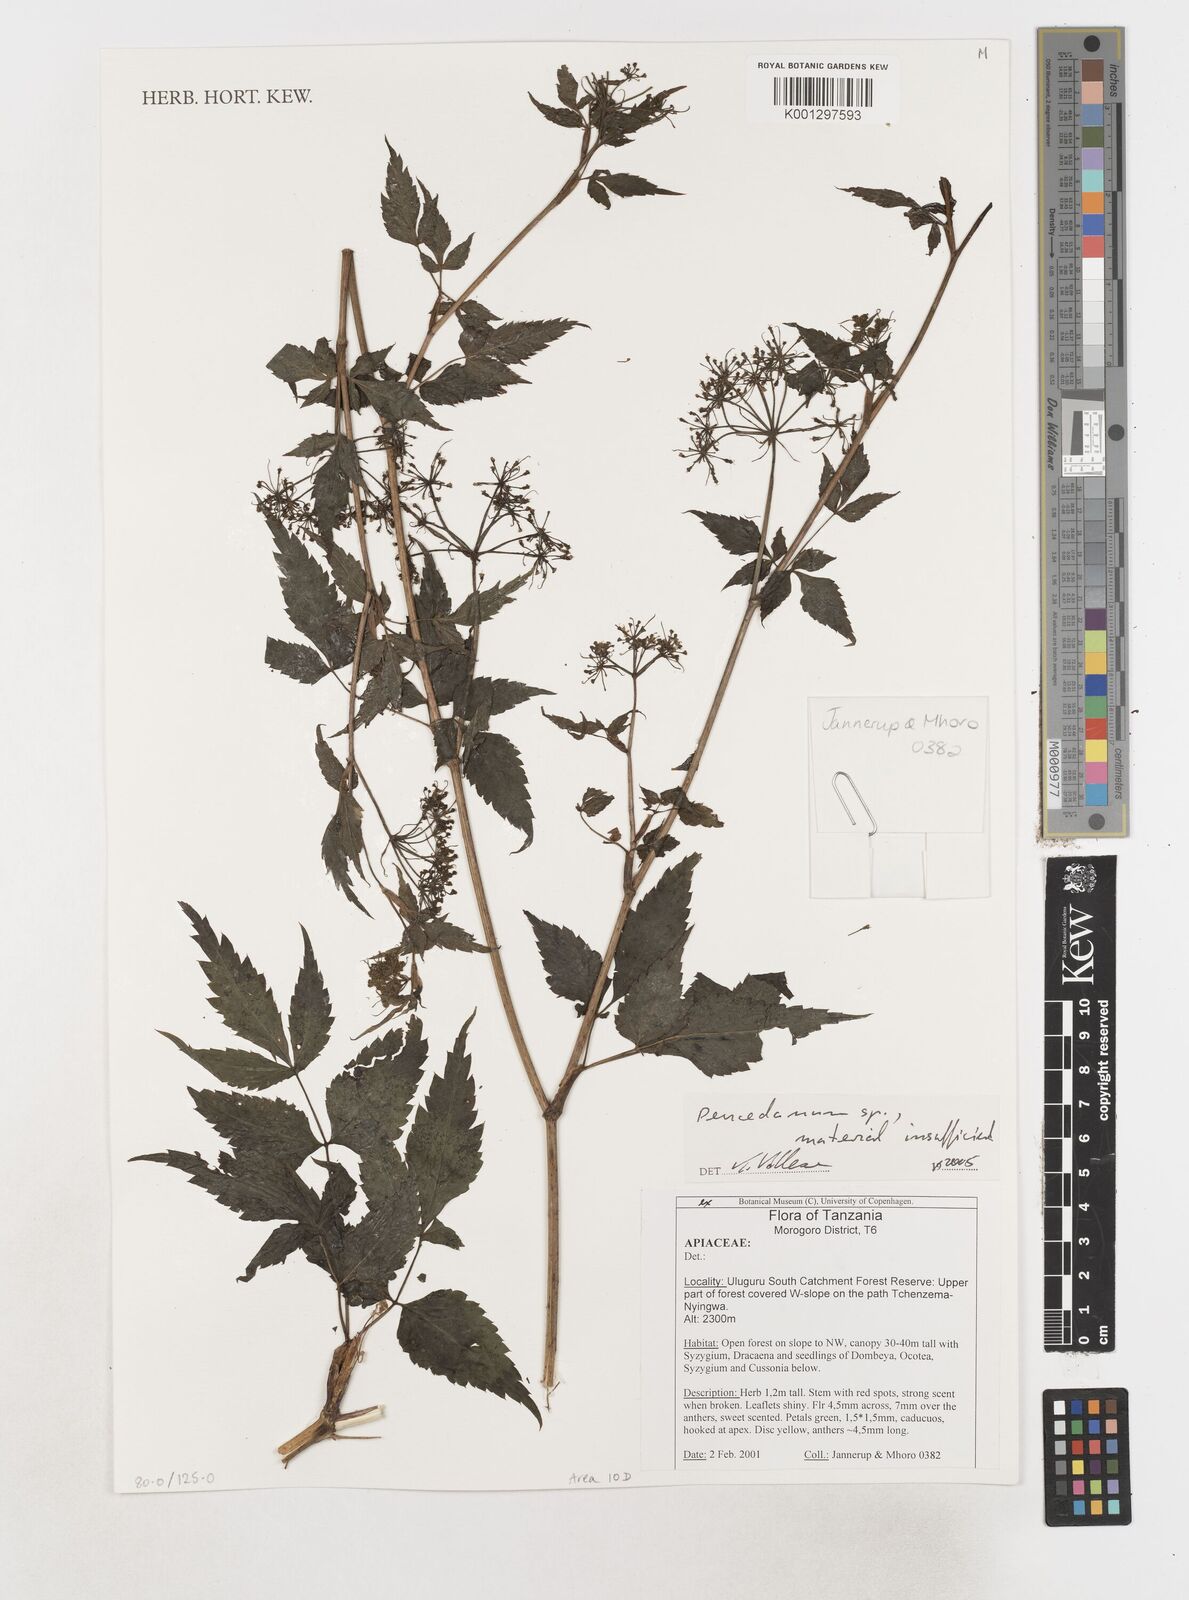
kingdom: Plantae
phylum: Tracheophyta
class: Magnoliopsida
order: Apiales
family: Apiaceae
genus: Peucedanum
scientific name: Peucedanum
